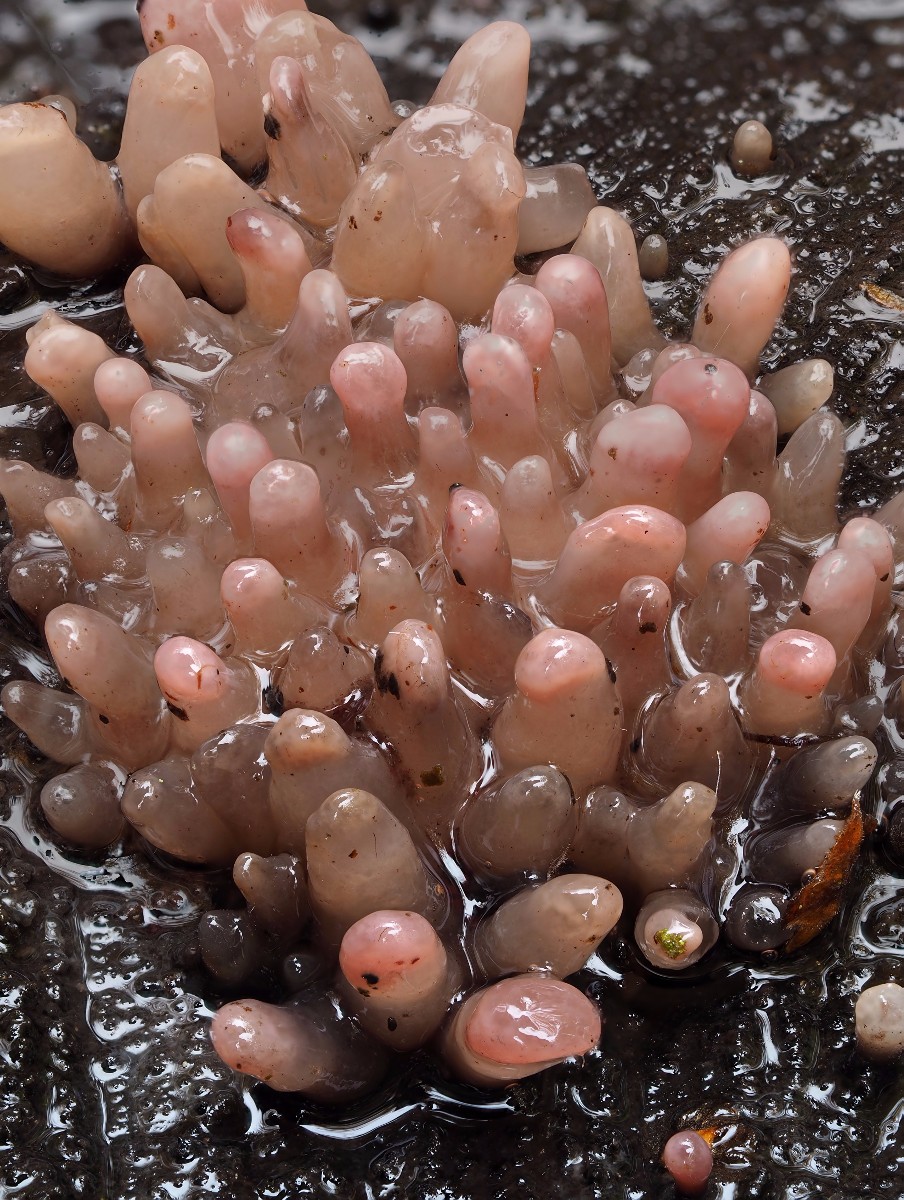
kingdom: Fungi
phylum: Ascomycota
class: Leotiomycetes
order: Helotiales
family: Gelatinodiscaceae
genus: Ascocoryne
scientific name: Ascocoryne sarcoides
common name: rødlilla sejskive
